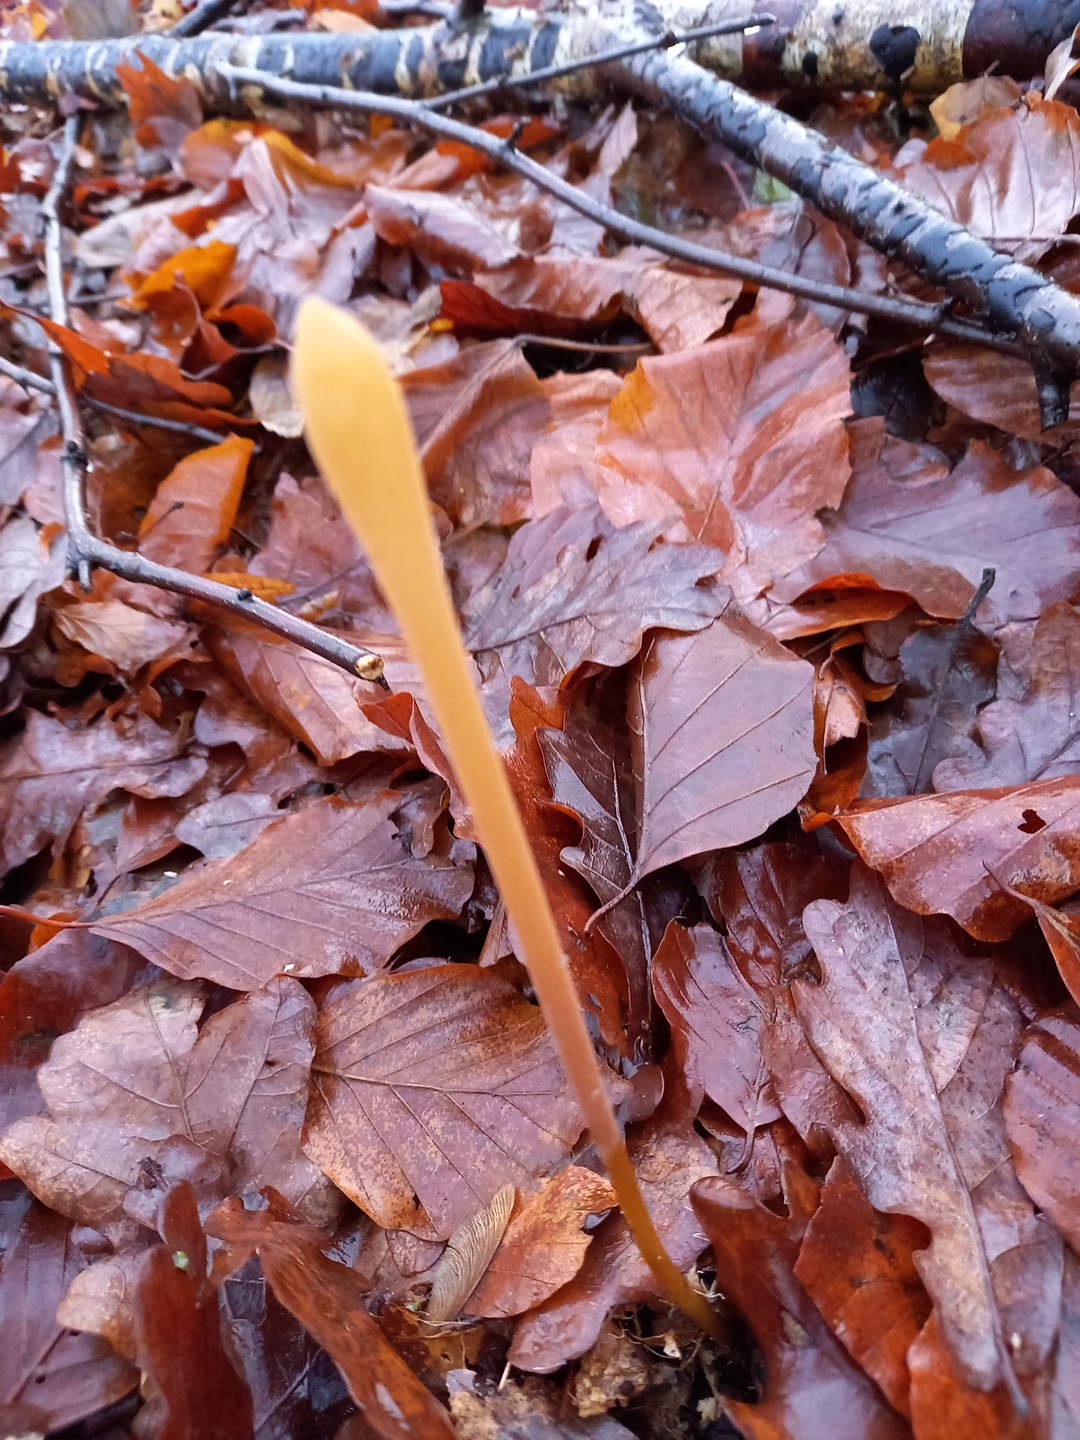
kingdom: Fungi
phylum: Basidiomycota
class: Agaricomycetes
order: Agaricales
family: Typhulaceae
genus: Typhula
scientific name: Typhula fistulosa
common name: pibet rørkølle
